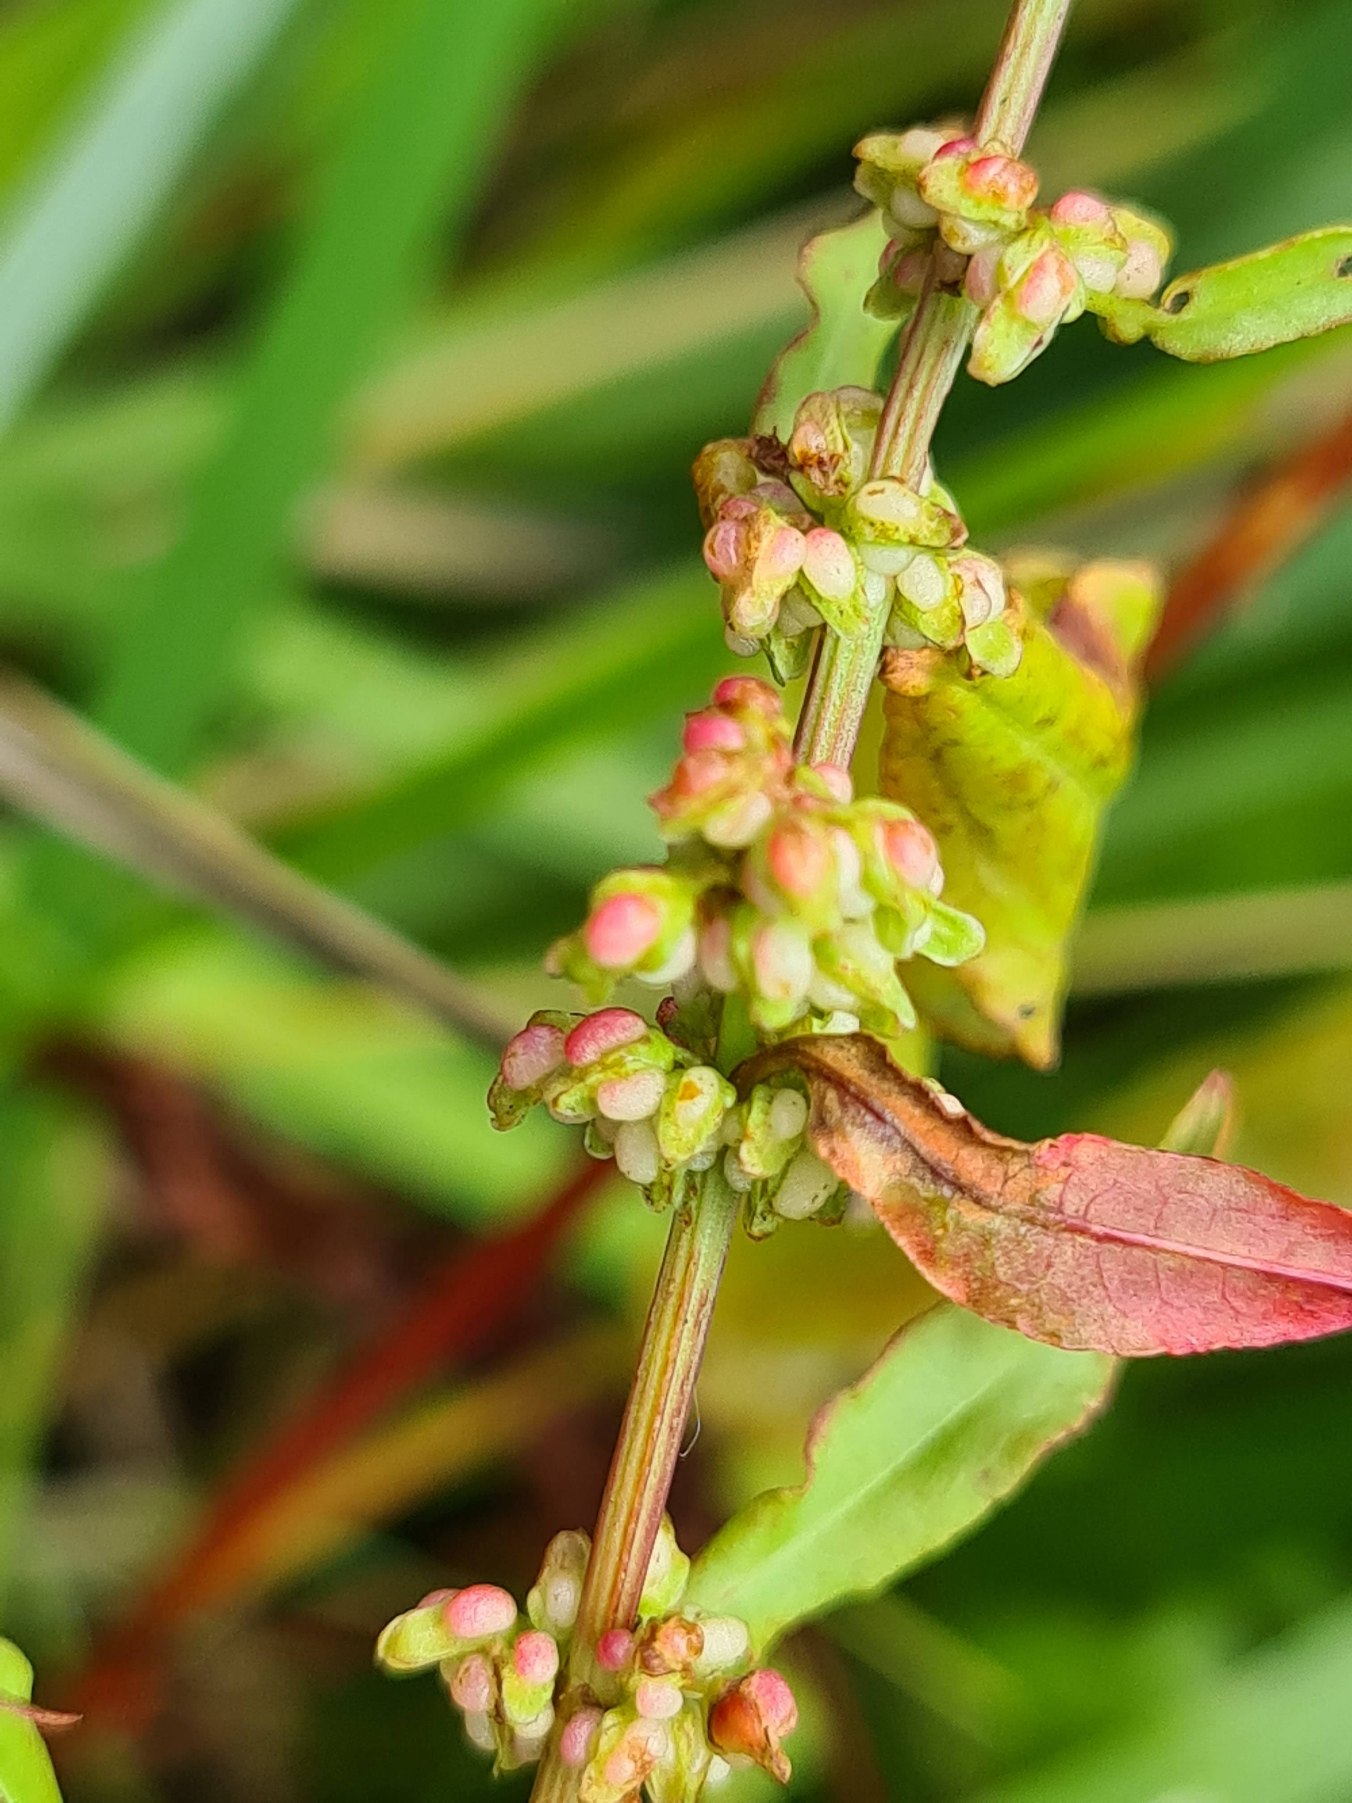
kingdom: Plantae
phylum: Tracheophyta
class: Magnoliopsida
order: Caryophyllales
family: Polygonaceae
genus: Rumex
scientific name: Rumex conglomeratus
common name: Nøgle-skræppe
